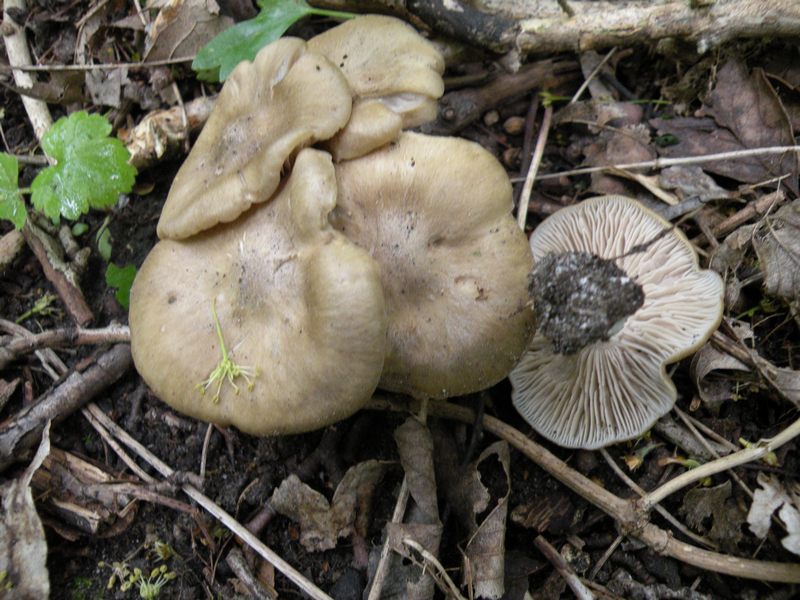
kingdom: Fungi
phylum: Basidiomycota
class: Agaricomycetes
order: Agaricales
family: Entolomataceae
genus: Entoloma
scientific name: Entoloma clypeatum
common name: flammet rødblad
